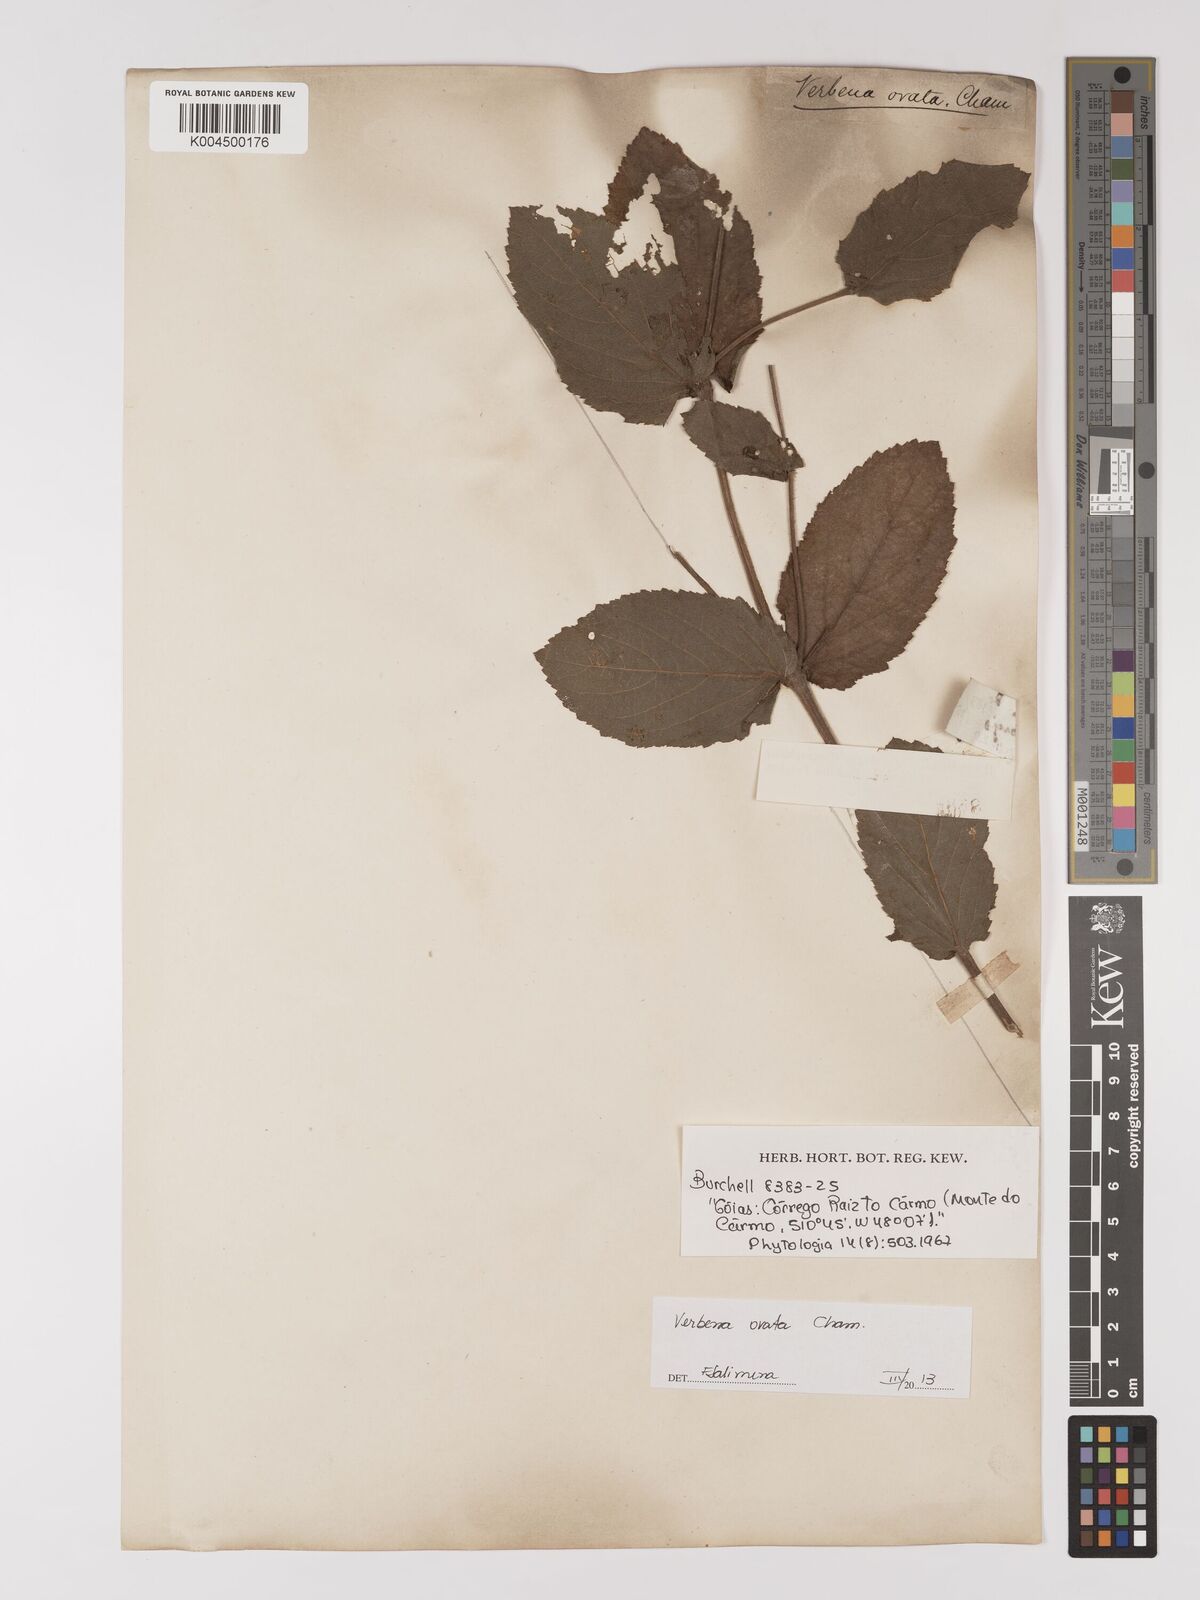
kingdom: Plantae
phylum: Tracheophyta
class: Magnoliopsida
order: Lamiales
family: Verbenaceae
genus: Verbena
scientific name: Verbena ovata
